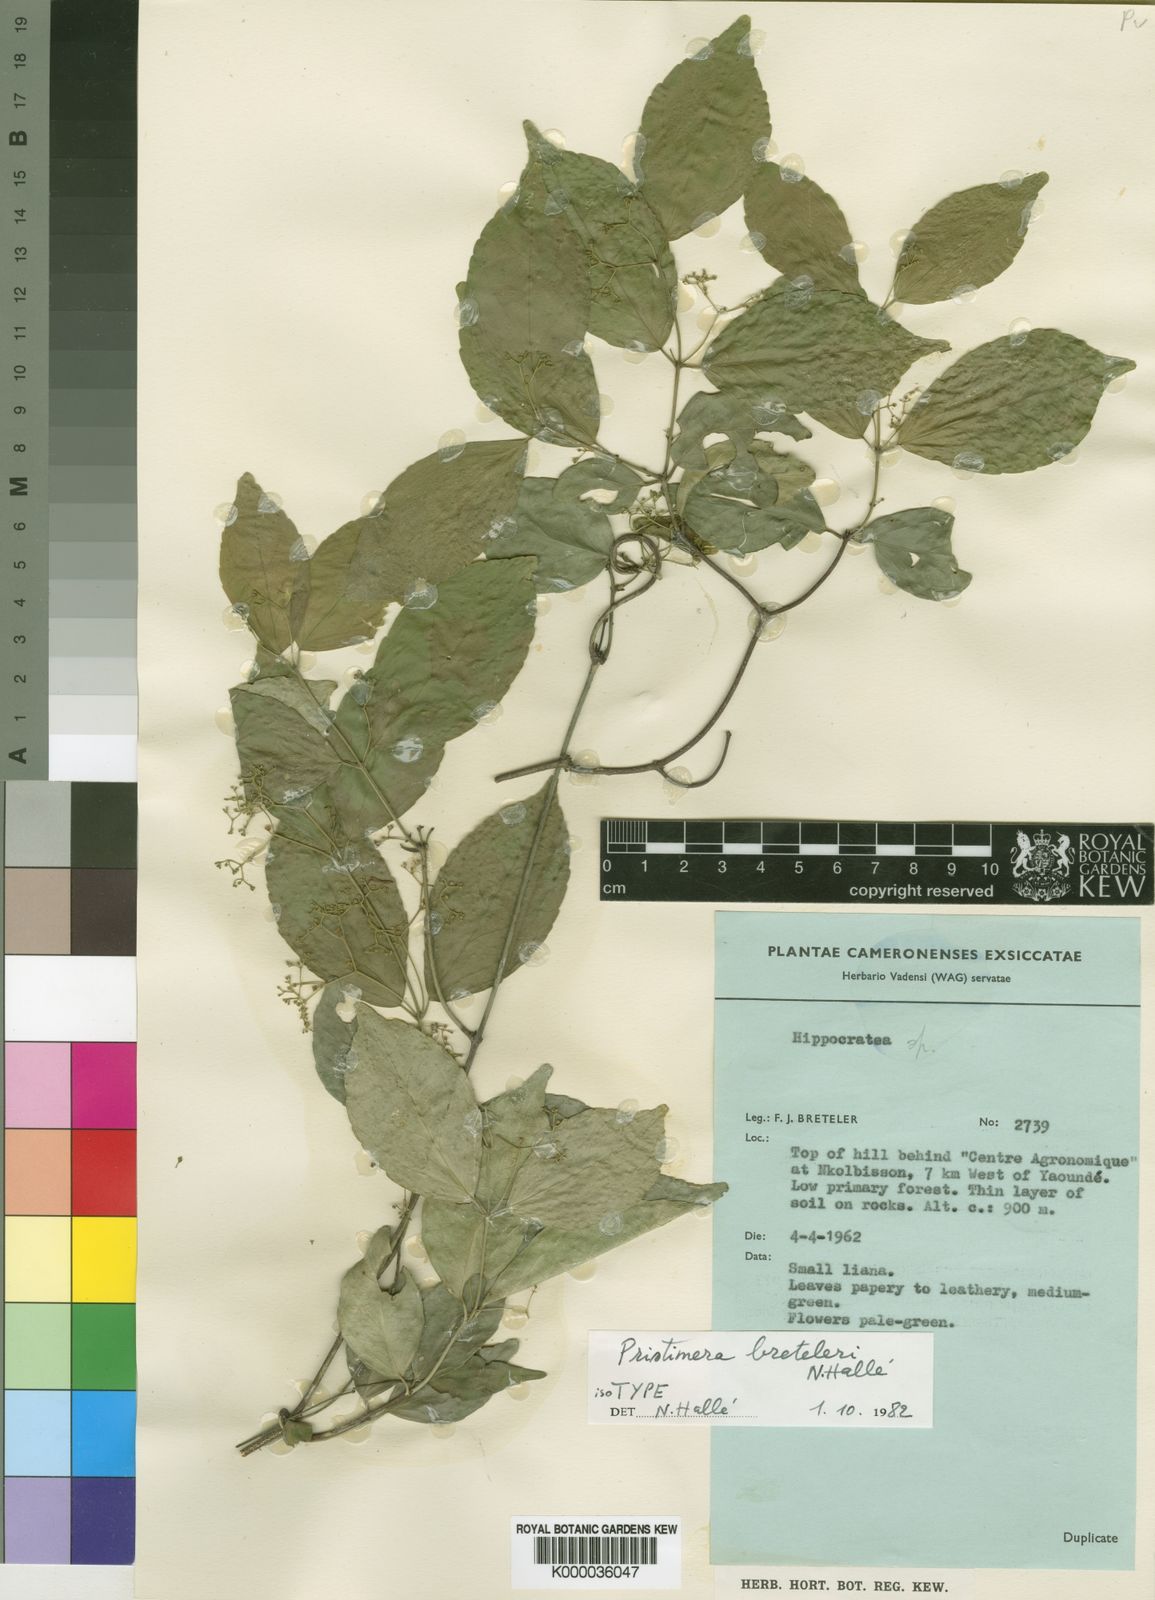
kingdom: Plantae
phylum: Tracheophyta
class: Magnoliopsida
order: Celastrales
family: Celastraceae
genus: Pristimera
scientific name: Pristimera
